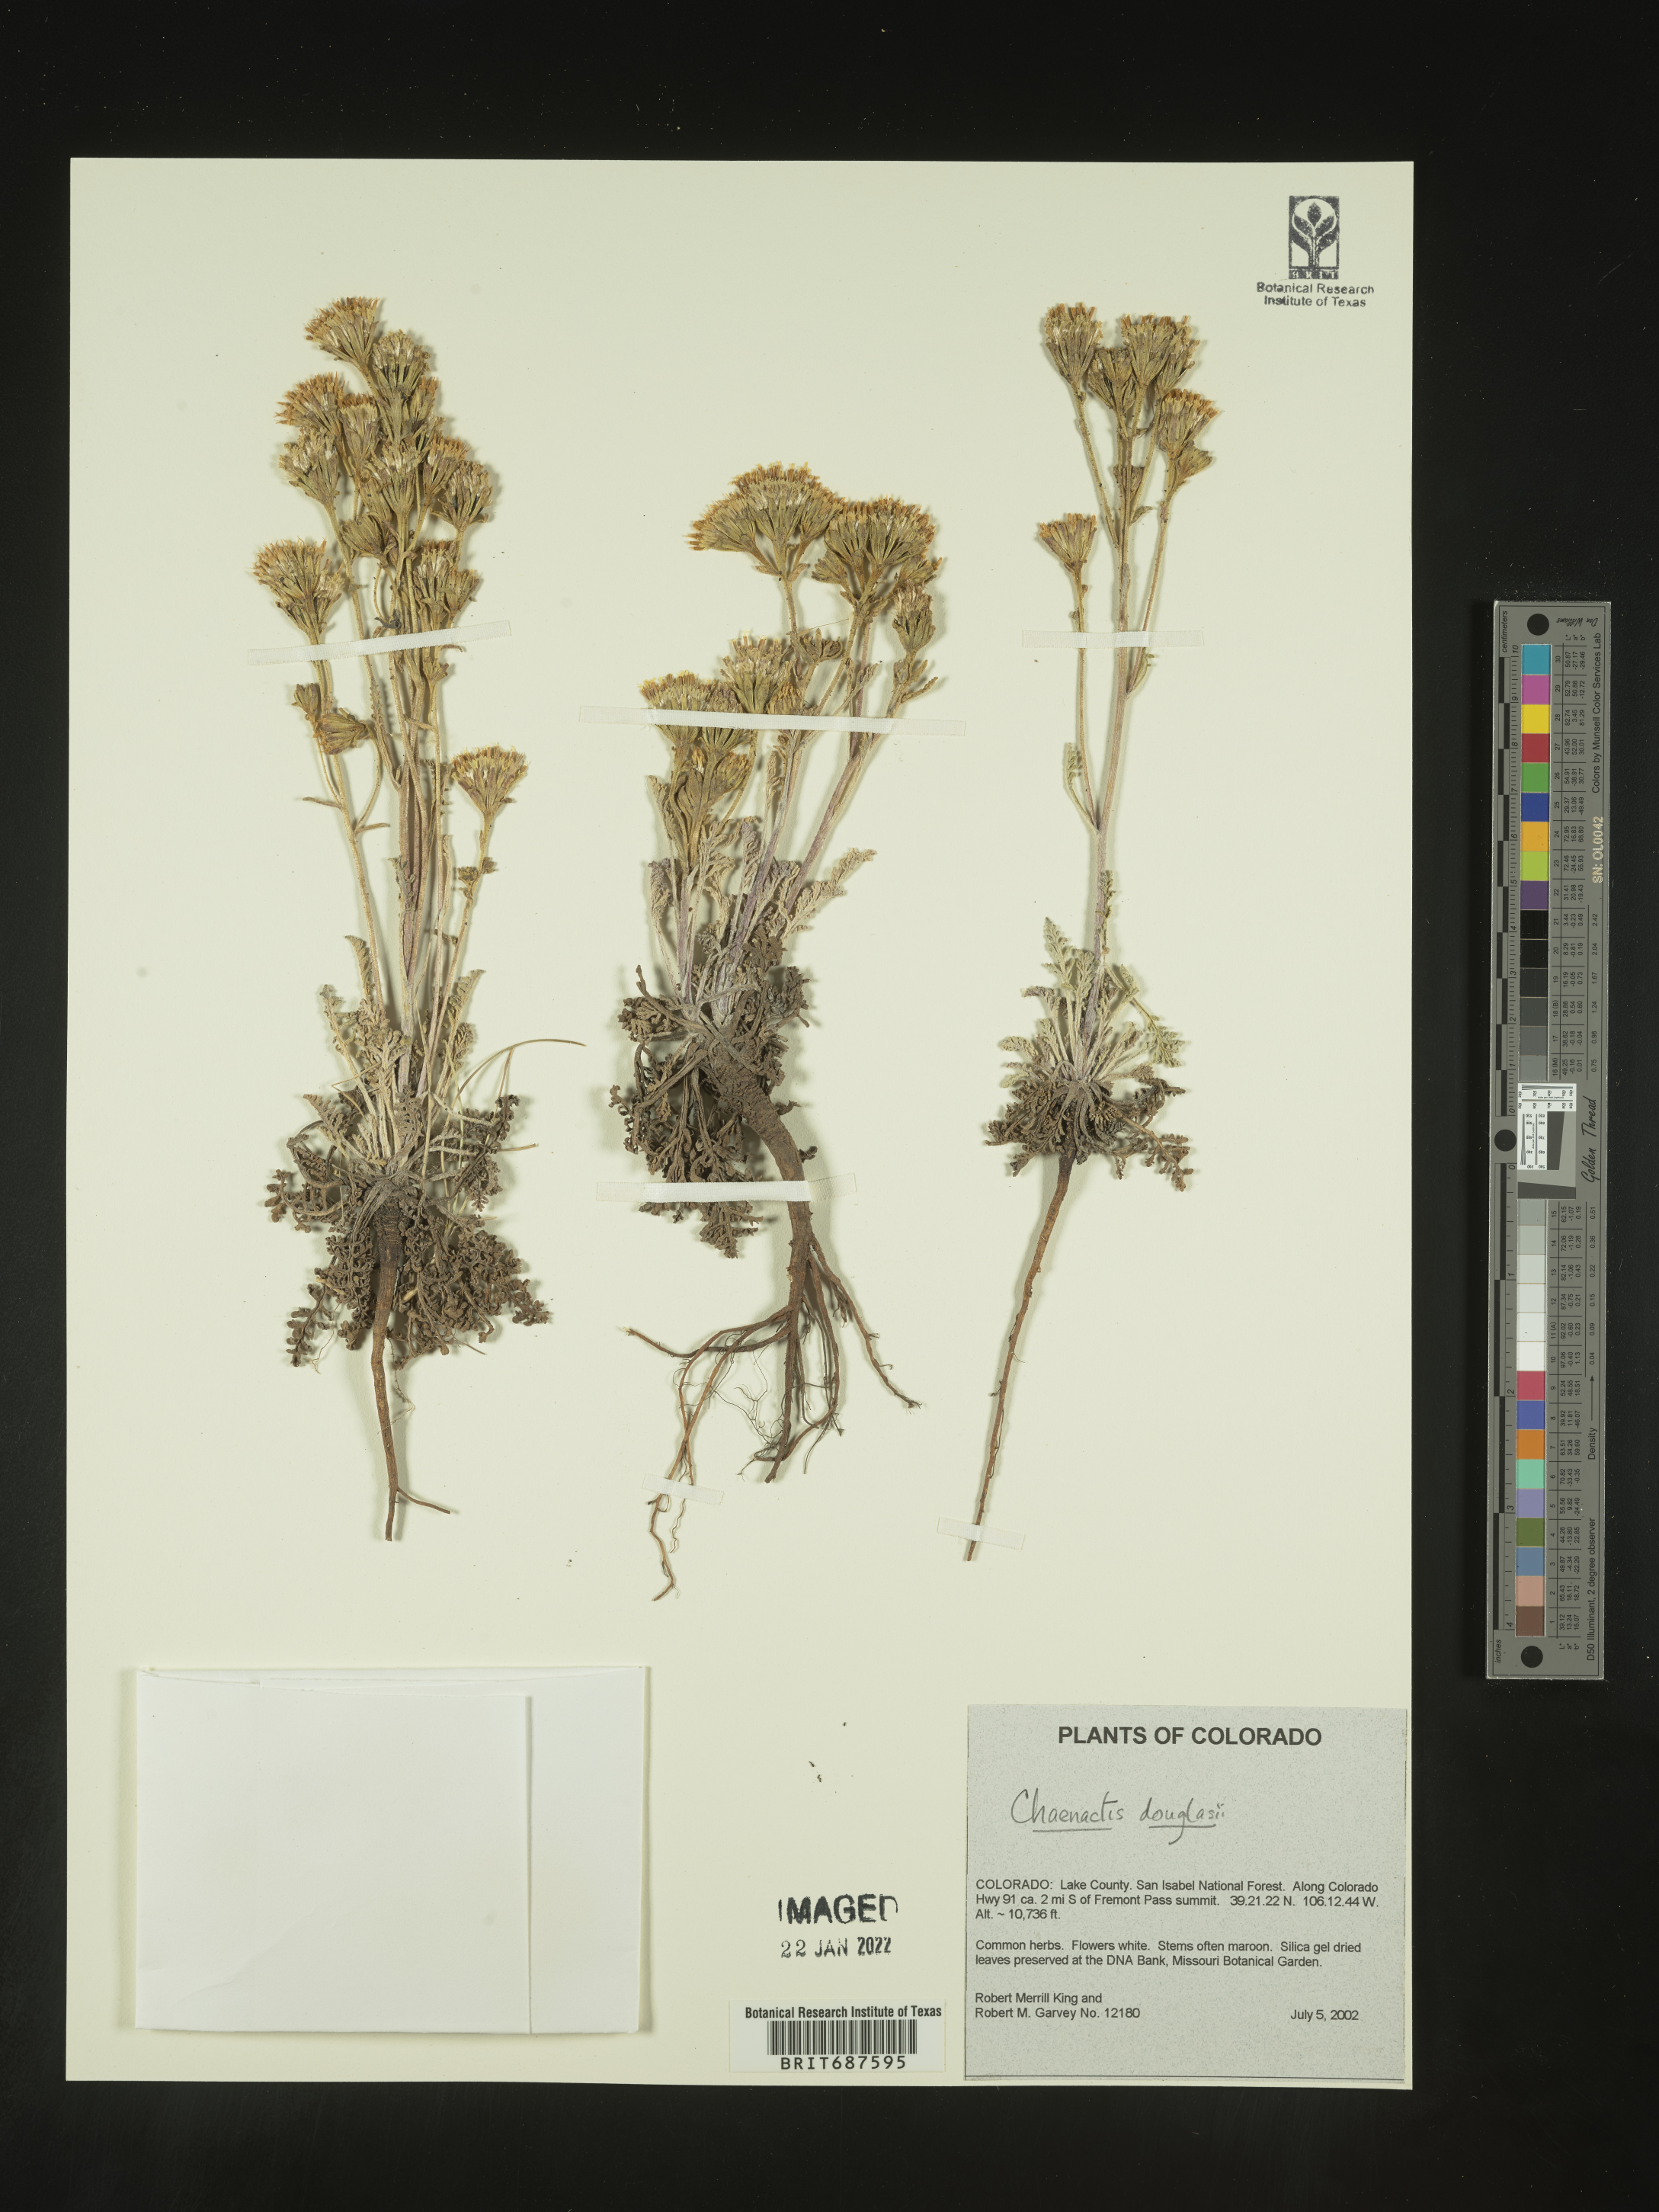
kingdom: Plantae
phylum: Tracheophyta
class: Magnoliopsida
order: Asterales
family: Asteraceae
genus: Chaenactis
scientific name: Chaenactis douglasii
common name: Hoary pincushion
